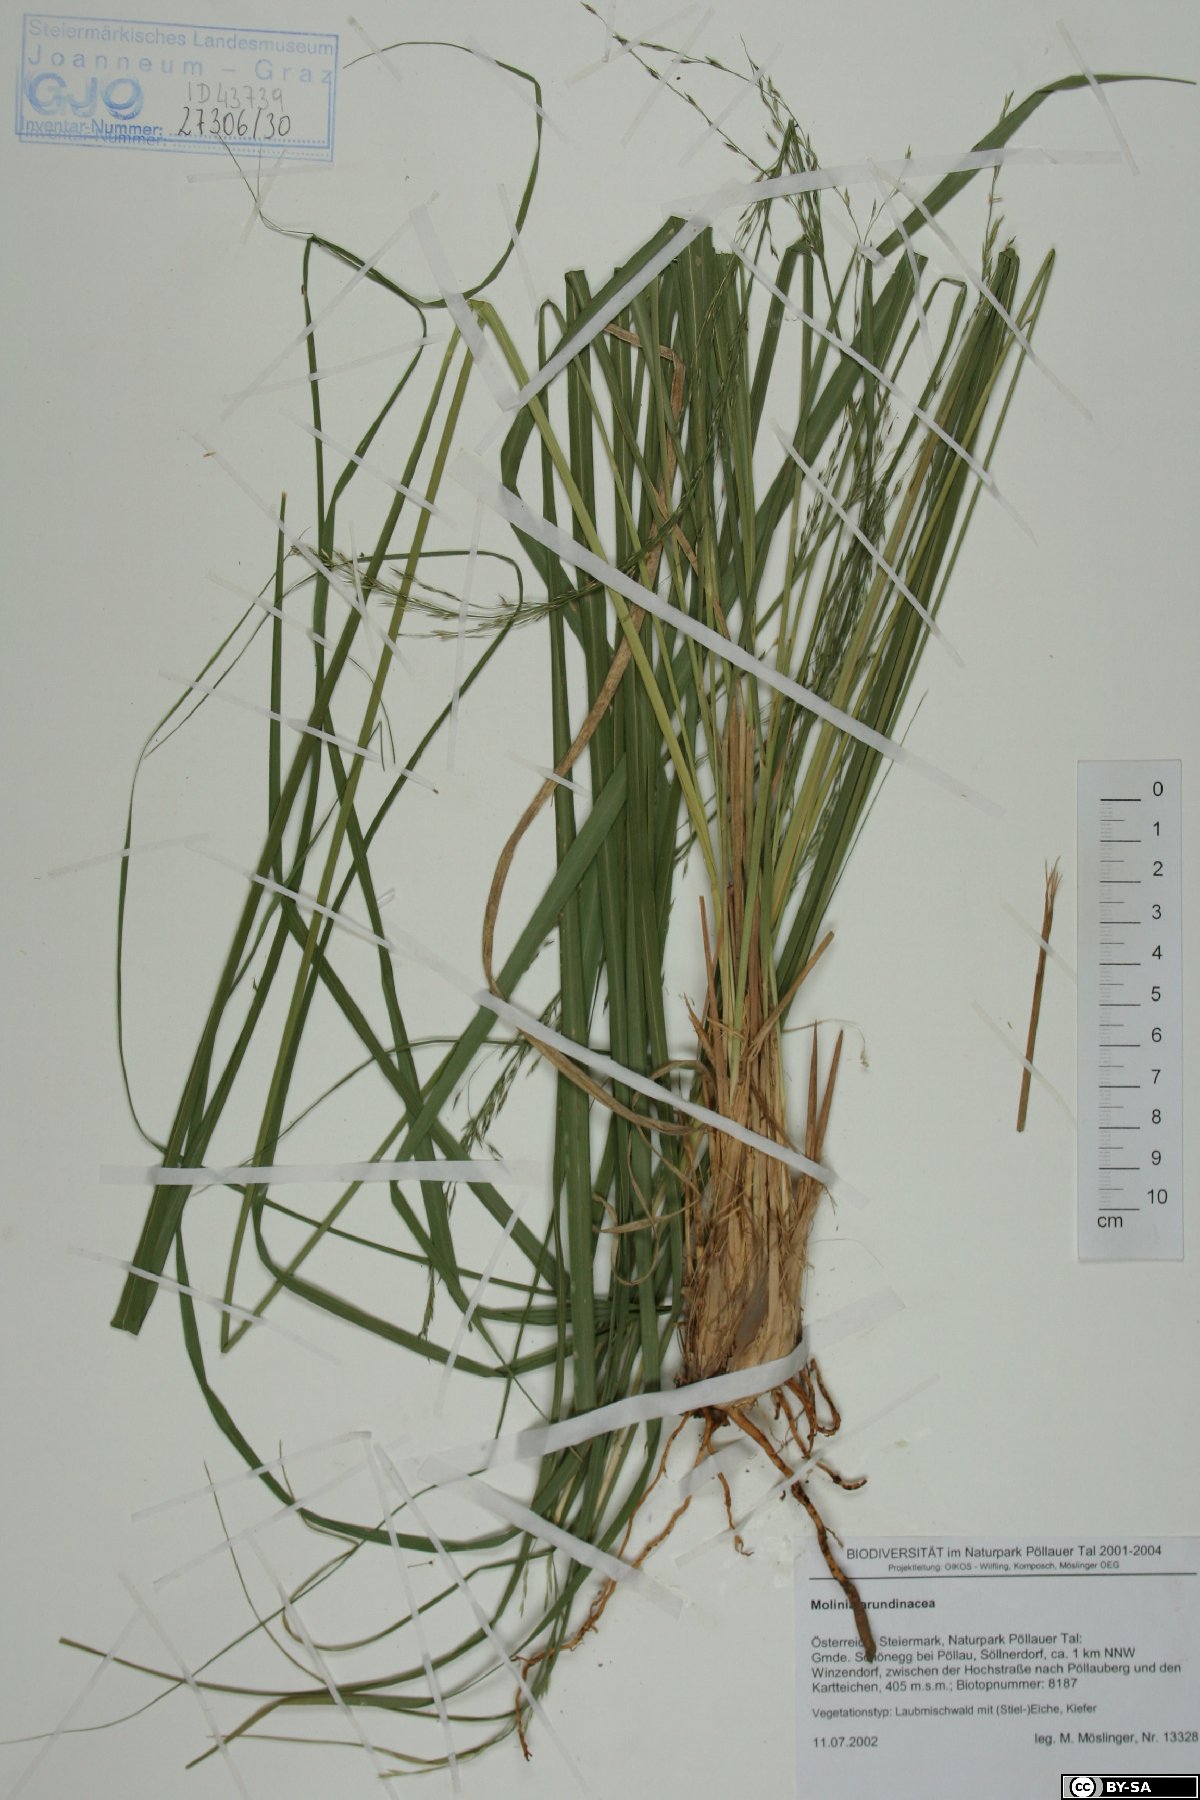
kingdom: Plantae
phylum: Tracheophyta
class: Liliopsida
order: Poales
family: Poaceae
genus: Molinia
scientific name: Molinia arundinacea
